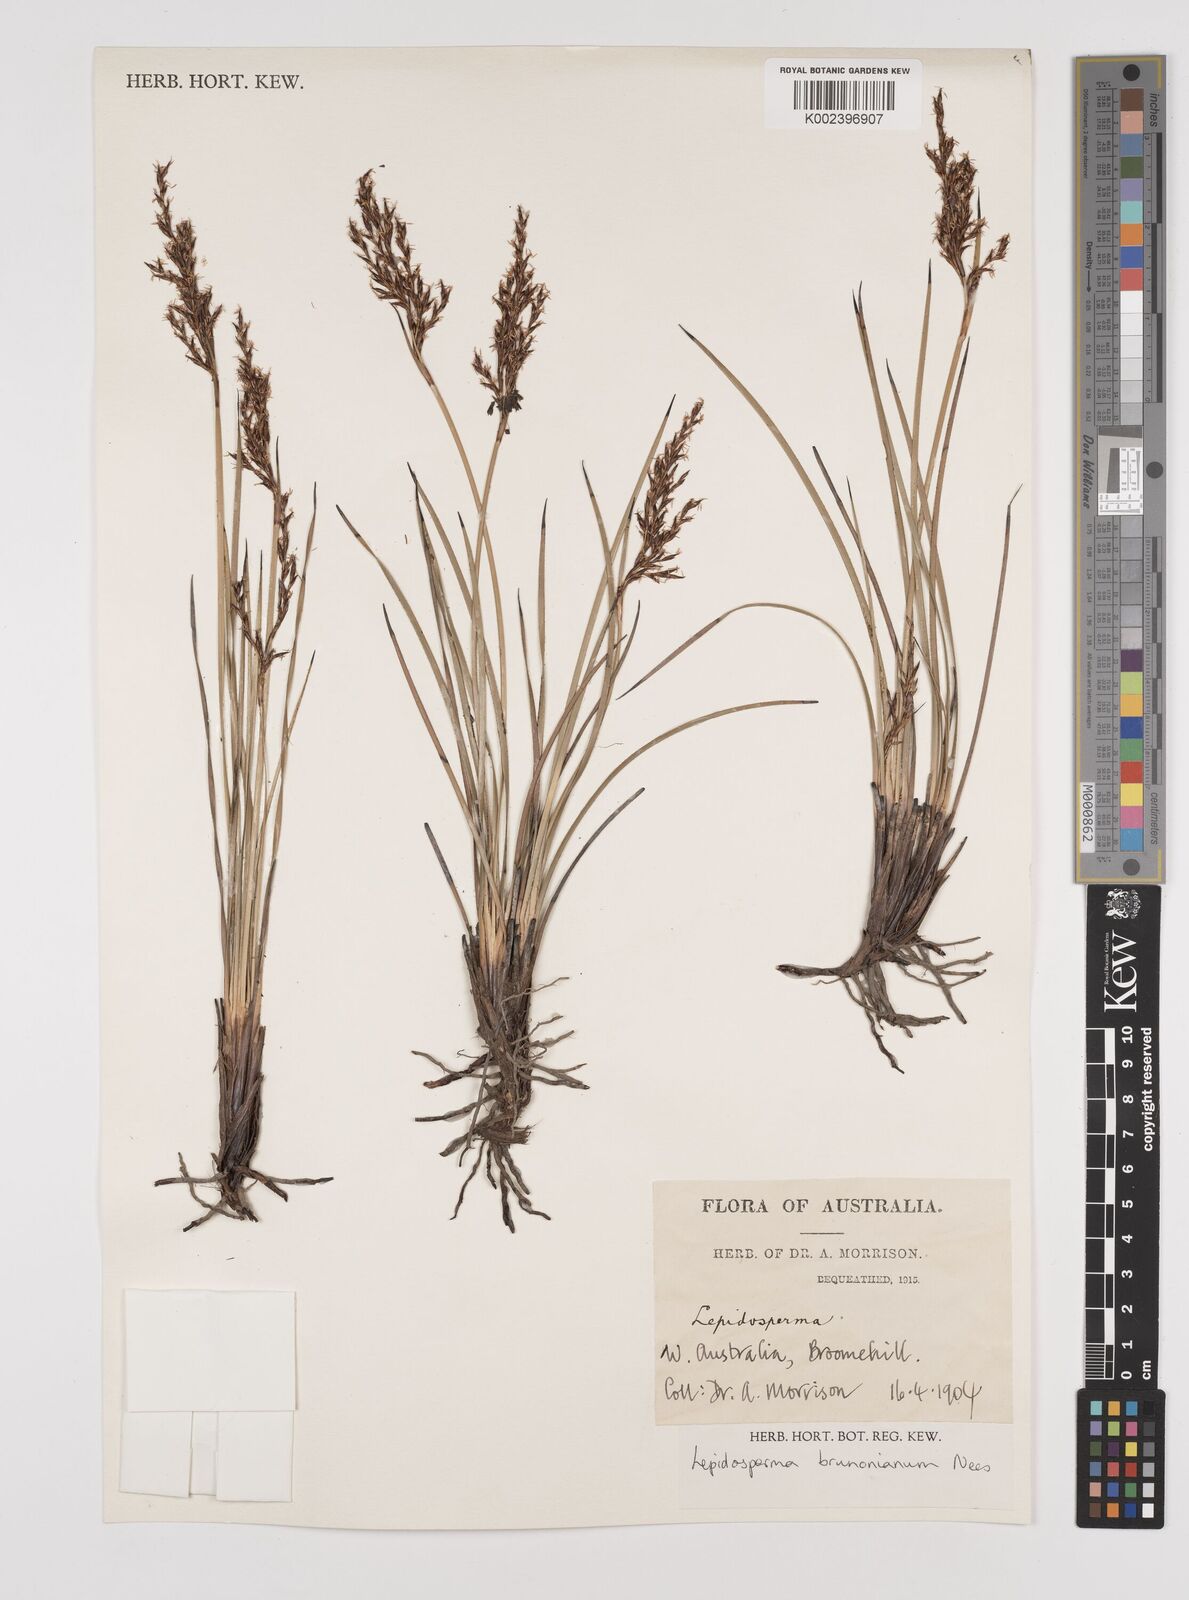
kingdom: Plantae
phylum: Tracheophyta
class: Liliopsida
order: Poales
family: Cyperaceae
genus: Lepidosperma
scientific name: Lepidosperma sieberi
